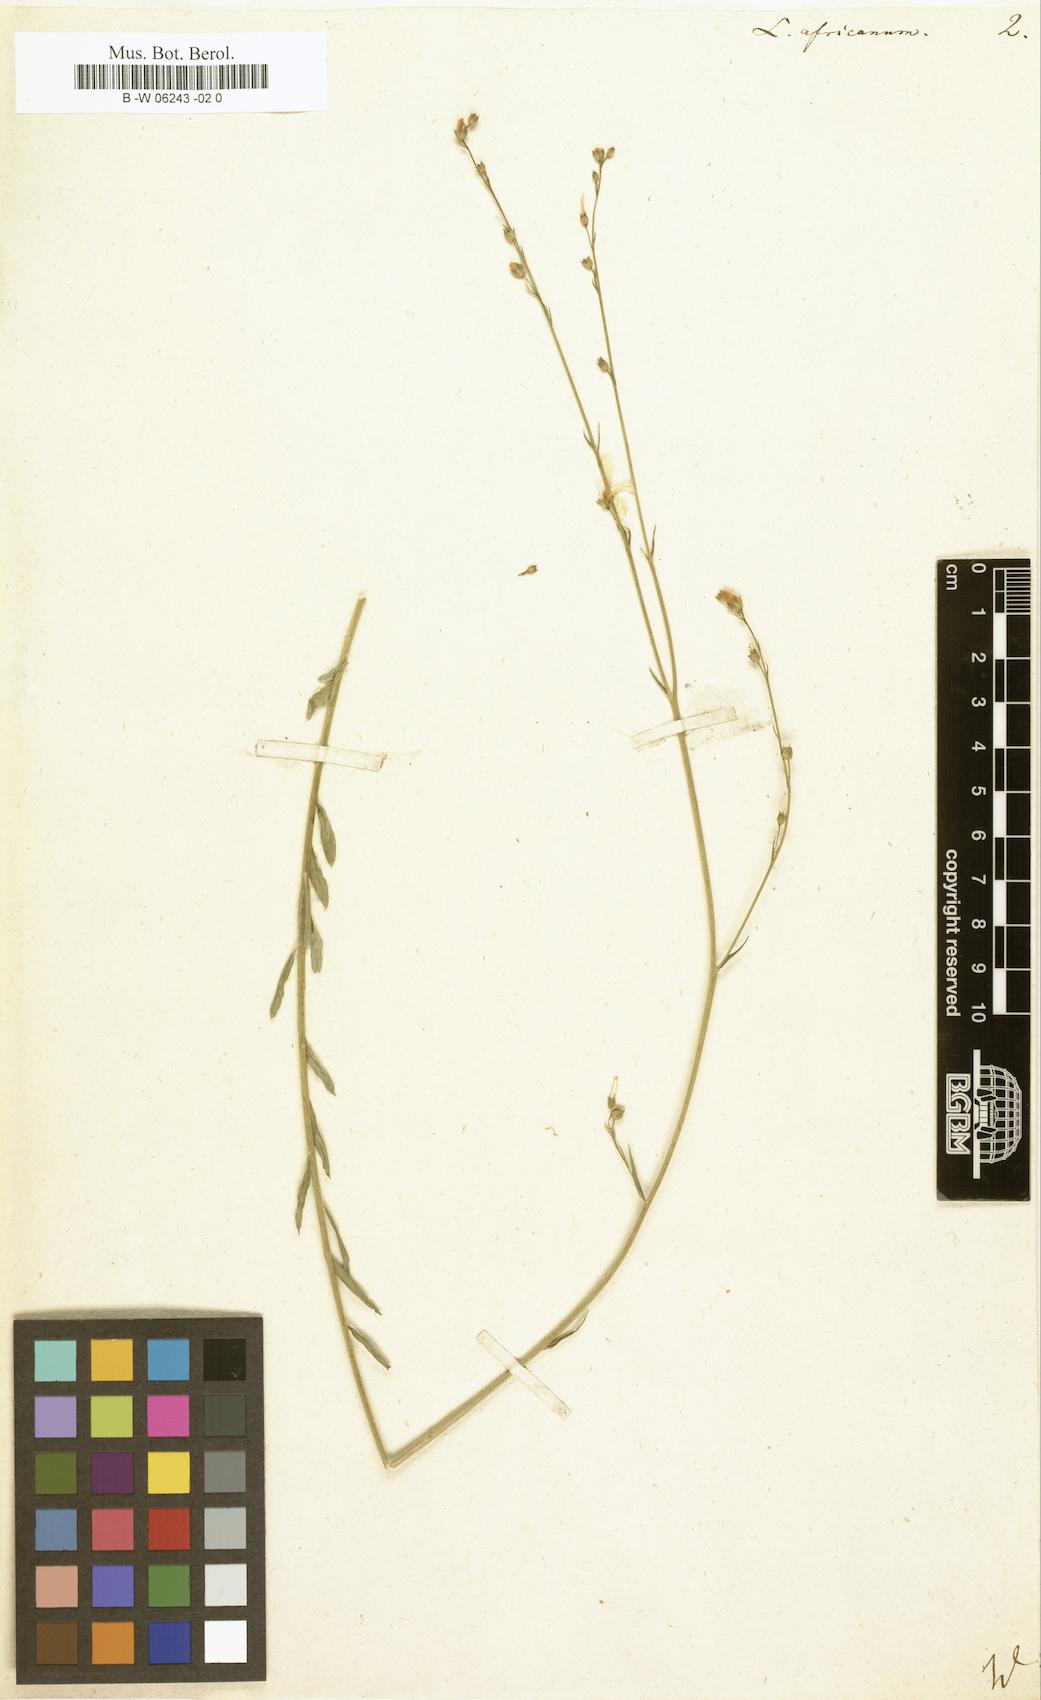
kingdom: Plantae
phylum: Tracheophyta
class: Magnoliopsida
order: Malpighiales
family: Linaceae
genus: Linum
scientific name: Linum africanum
